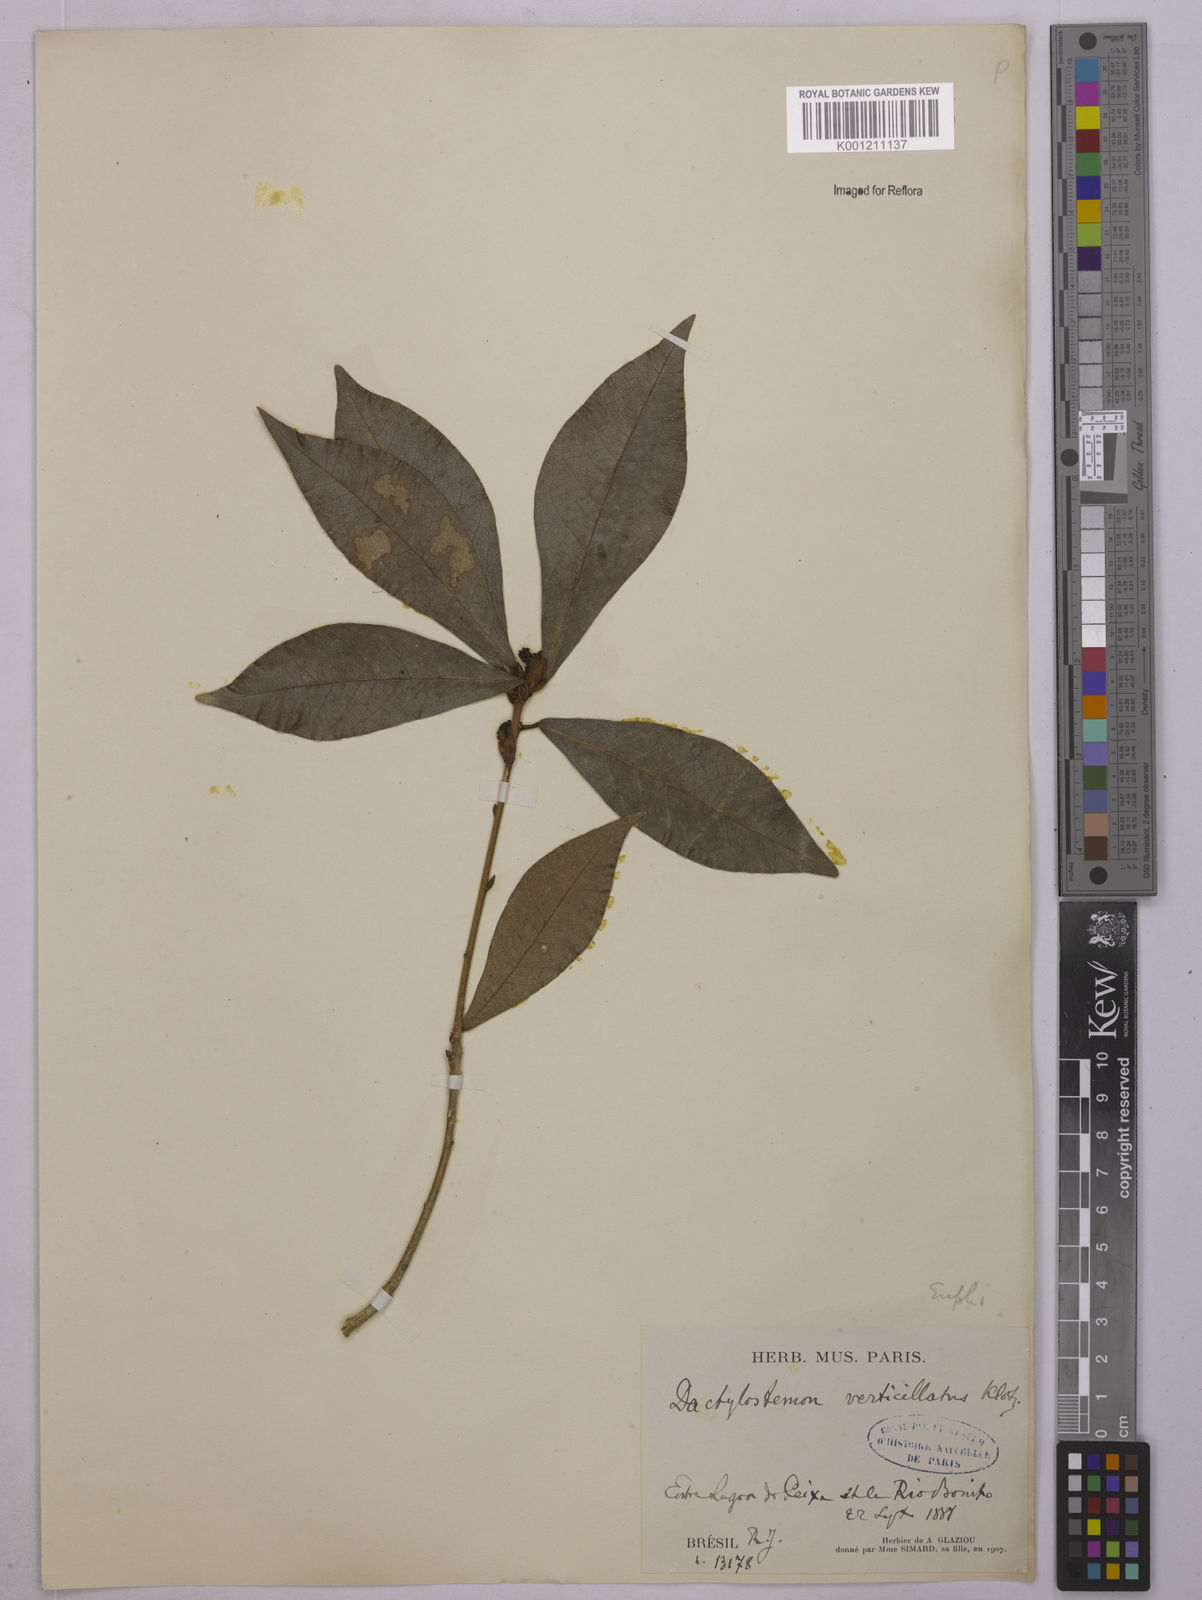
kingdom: Plantae
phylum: Tracheophyta
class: Magnoliopsida
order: Malpighiales
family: Euphorbiaceae
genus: Actinostemon
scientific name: Actinostemon verticillatus
